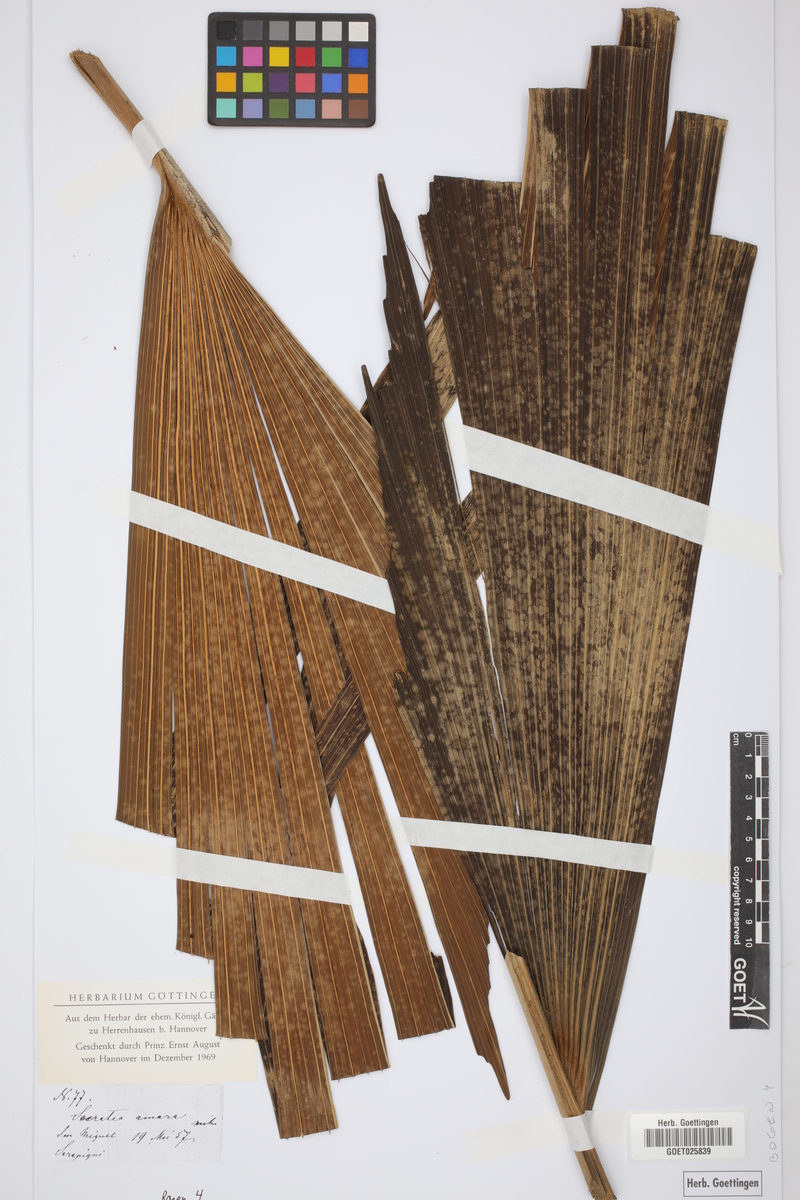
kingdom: Plantae
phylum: Tracheophyta
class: Liliopsida
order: Arecales
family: Arecaceae
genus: Socratea
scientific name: Socratea
